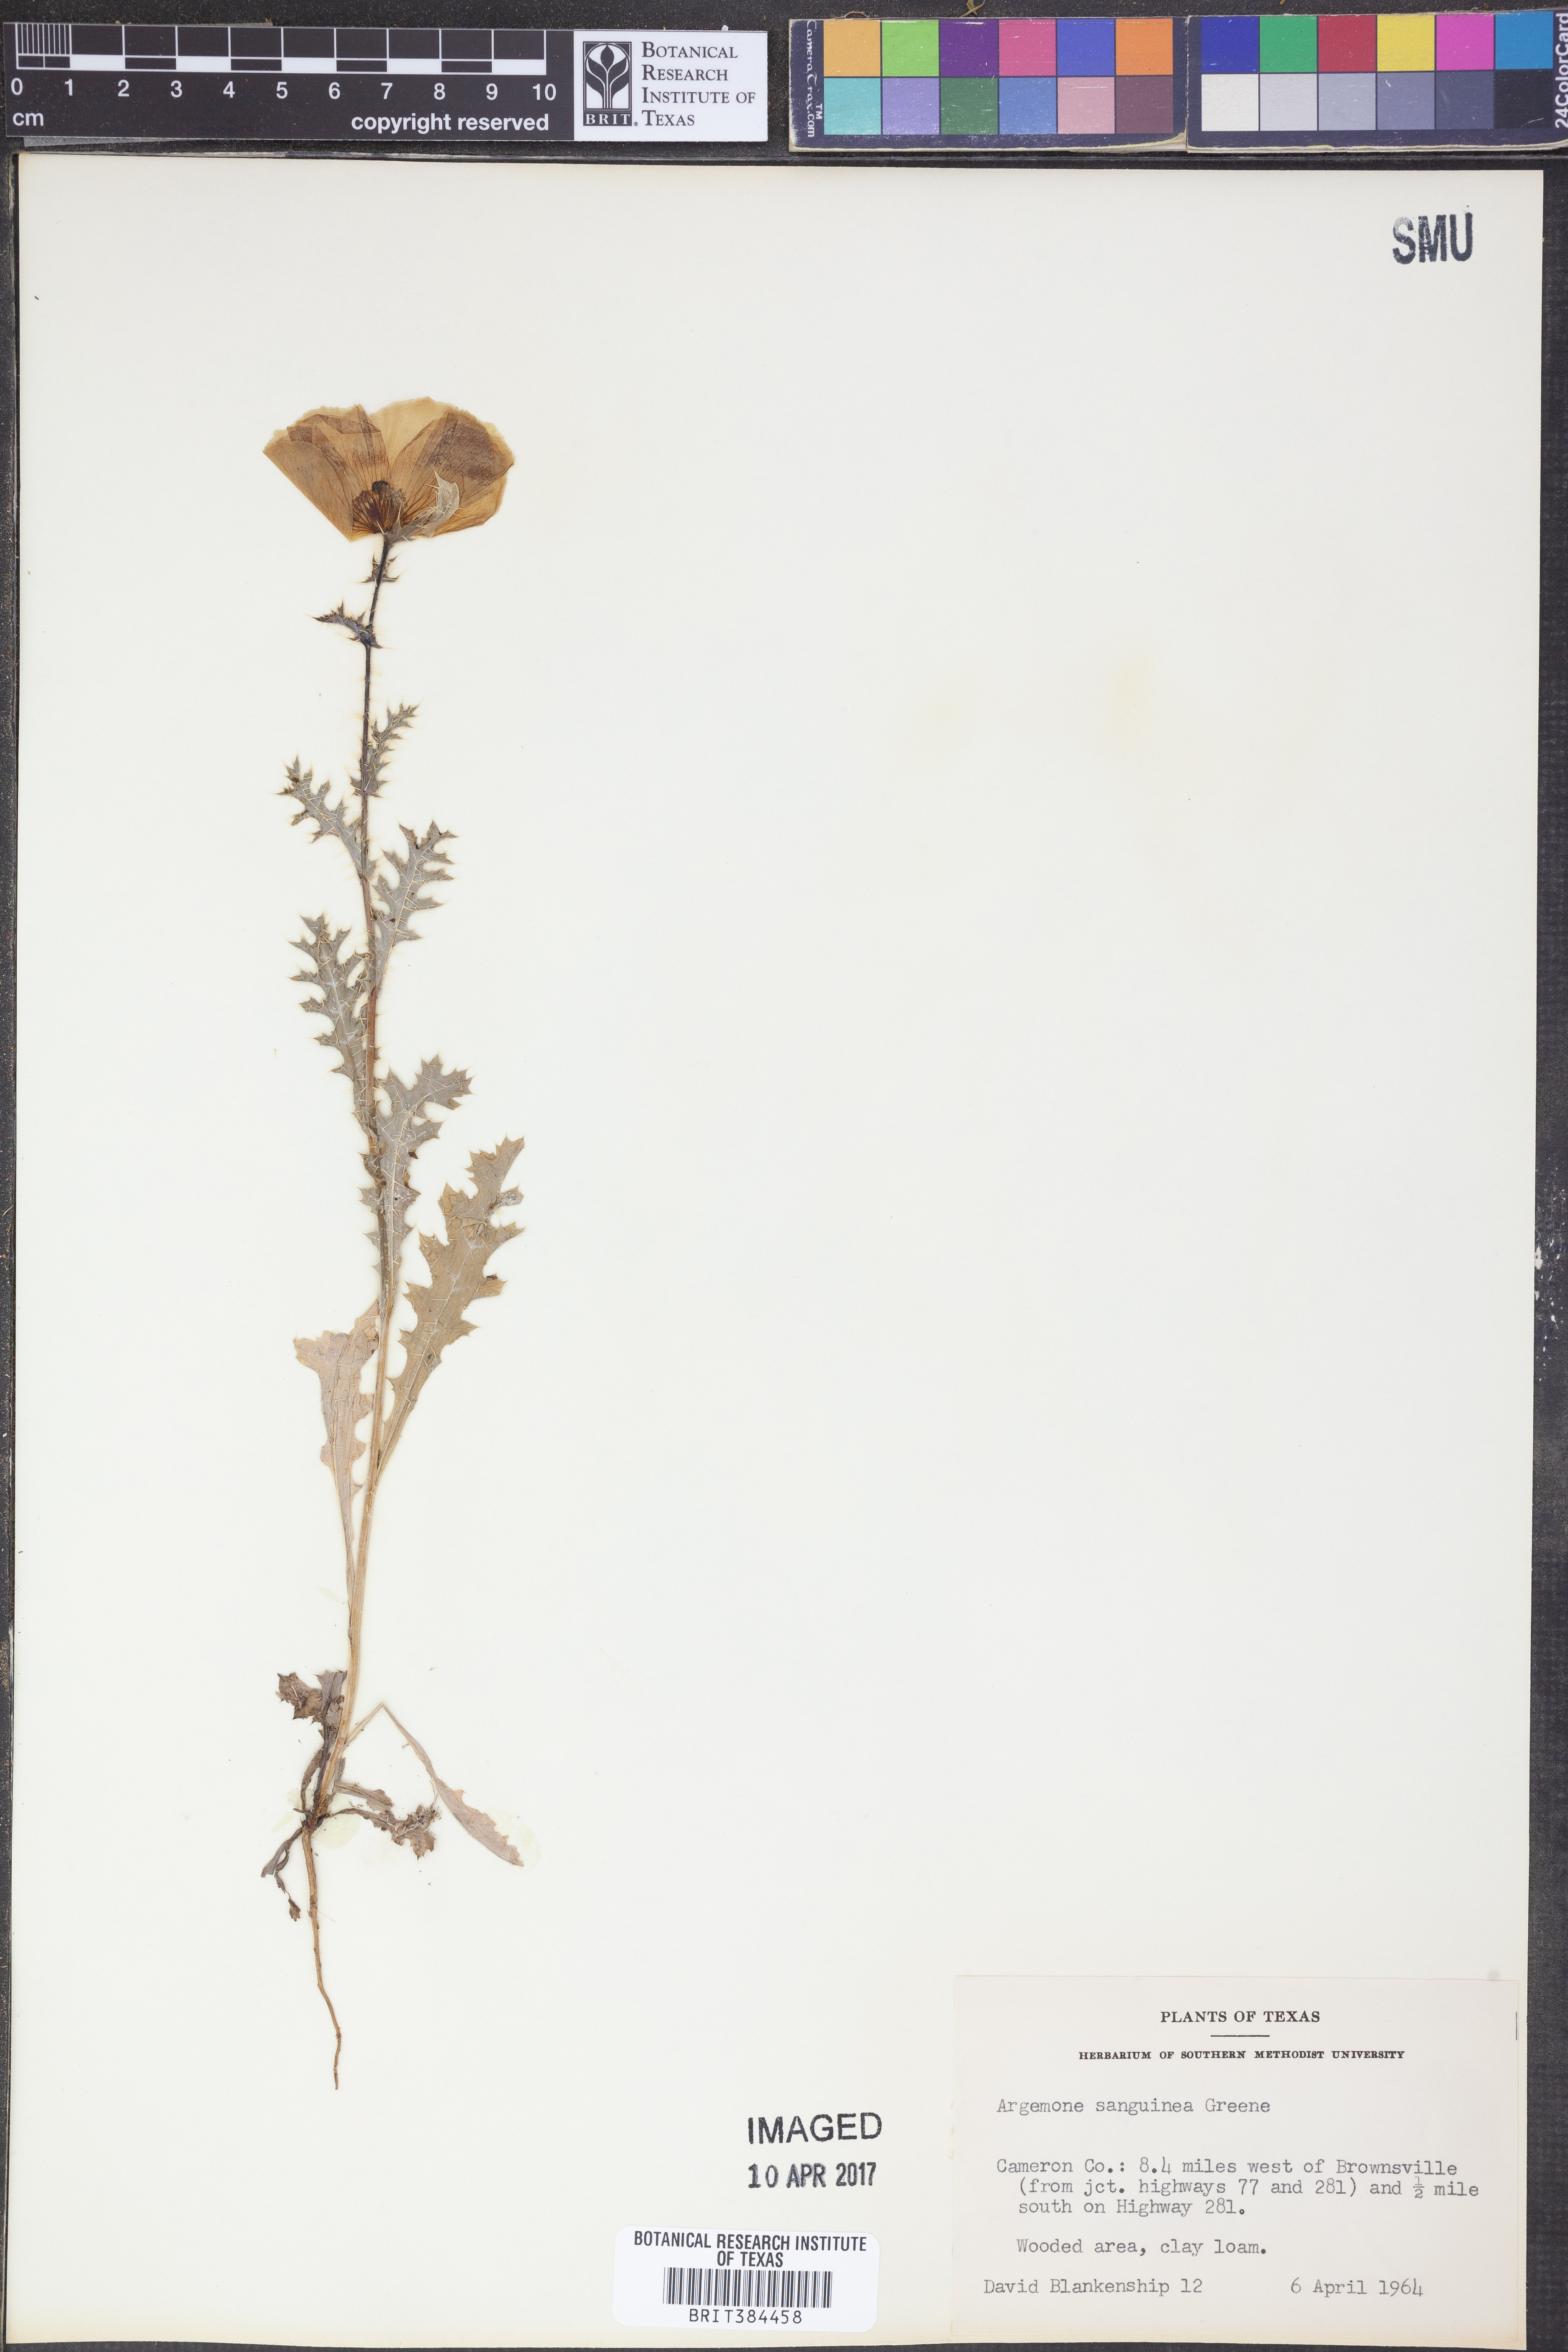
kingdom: Plantae
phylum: Tracheophyta
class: Magnoliopsida
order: Ranunculales
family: Papaveraceae
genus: Argemone
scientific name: Argemone sanguinea
